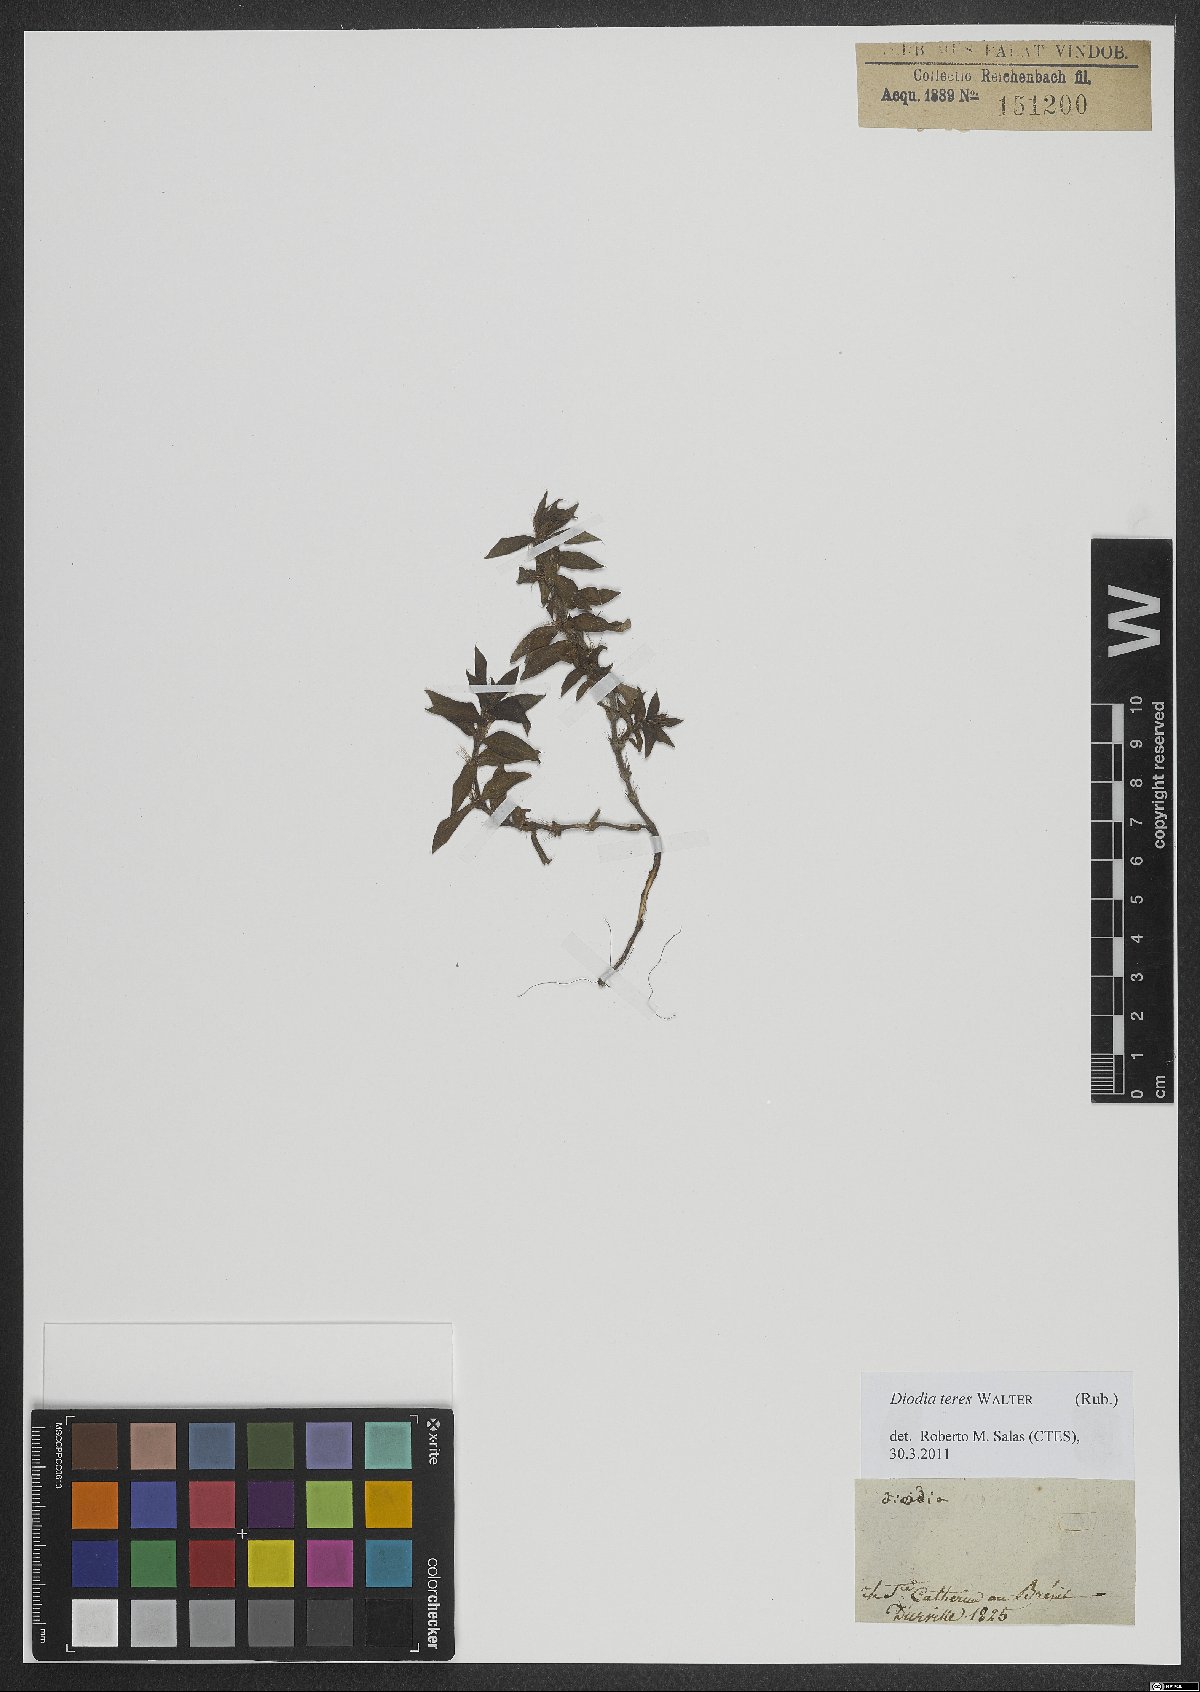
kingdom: Plantae
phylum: Tracheophyta
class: Magnoliopsida
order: Gentianales
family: Rubiaceae
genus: Hexasepalum
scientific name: Hexasepalum teres
